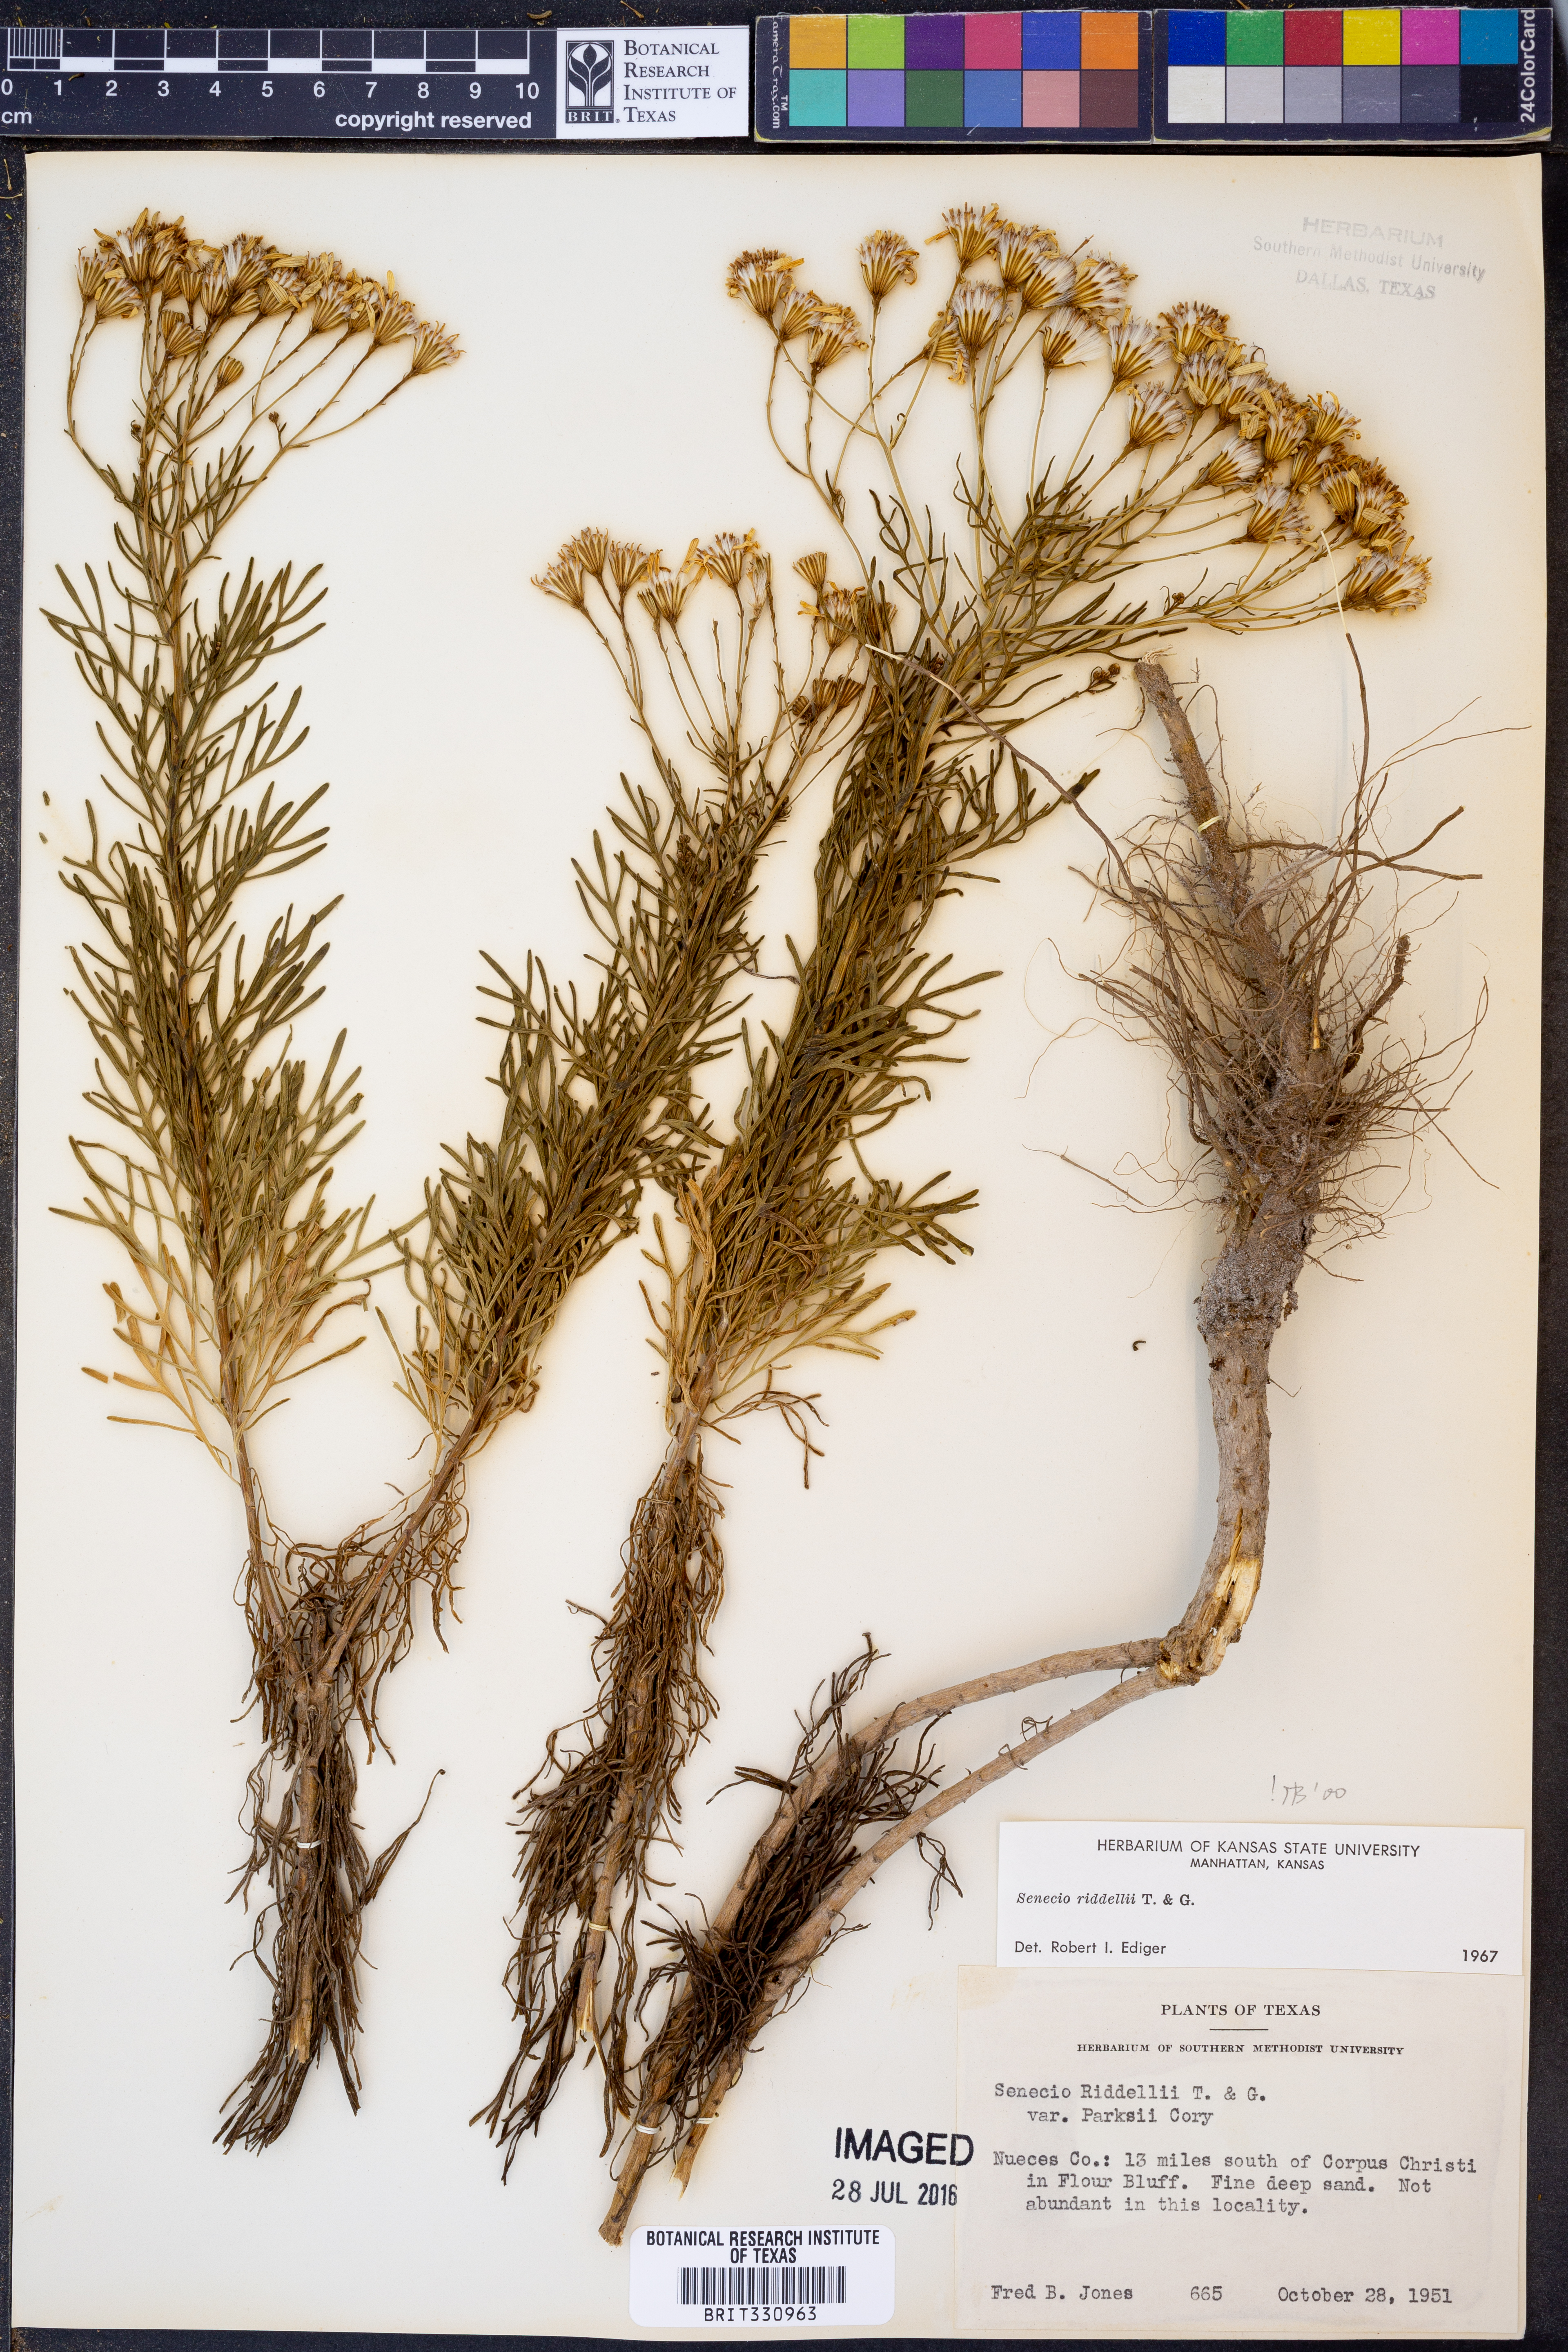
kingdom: Plantae
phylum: Tracheophyta
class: Magnoliopsida
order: Asterales
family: Asteraceae
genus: Senecio
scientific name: Senecio riddellii
